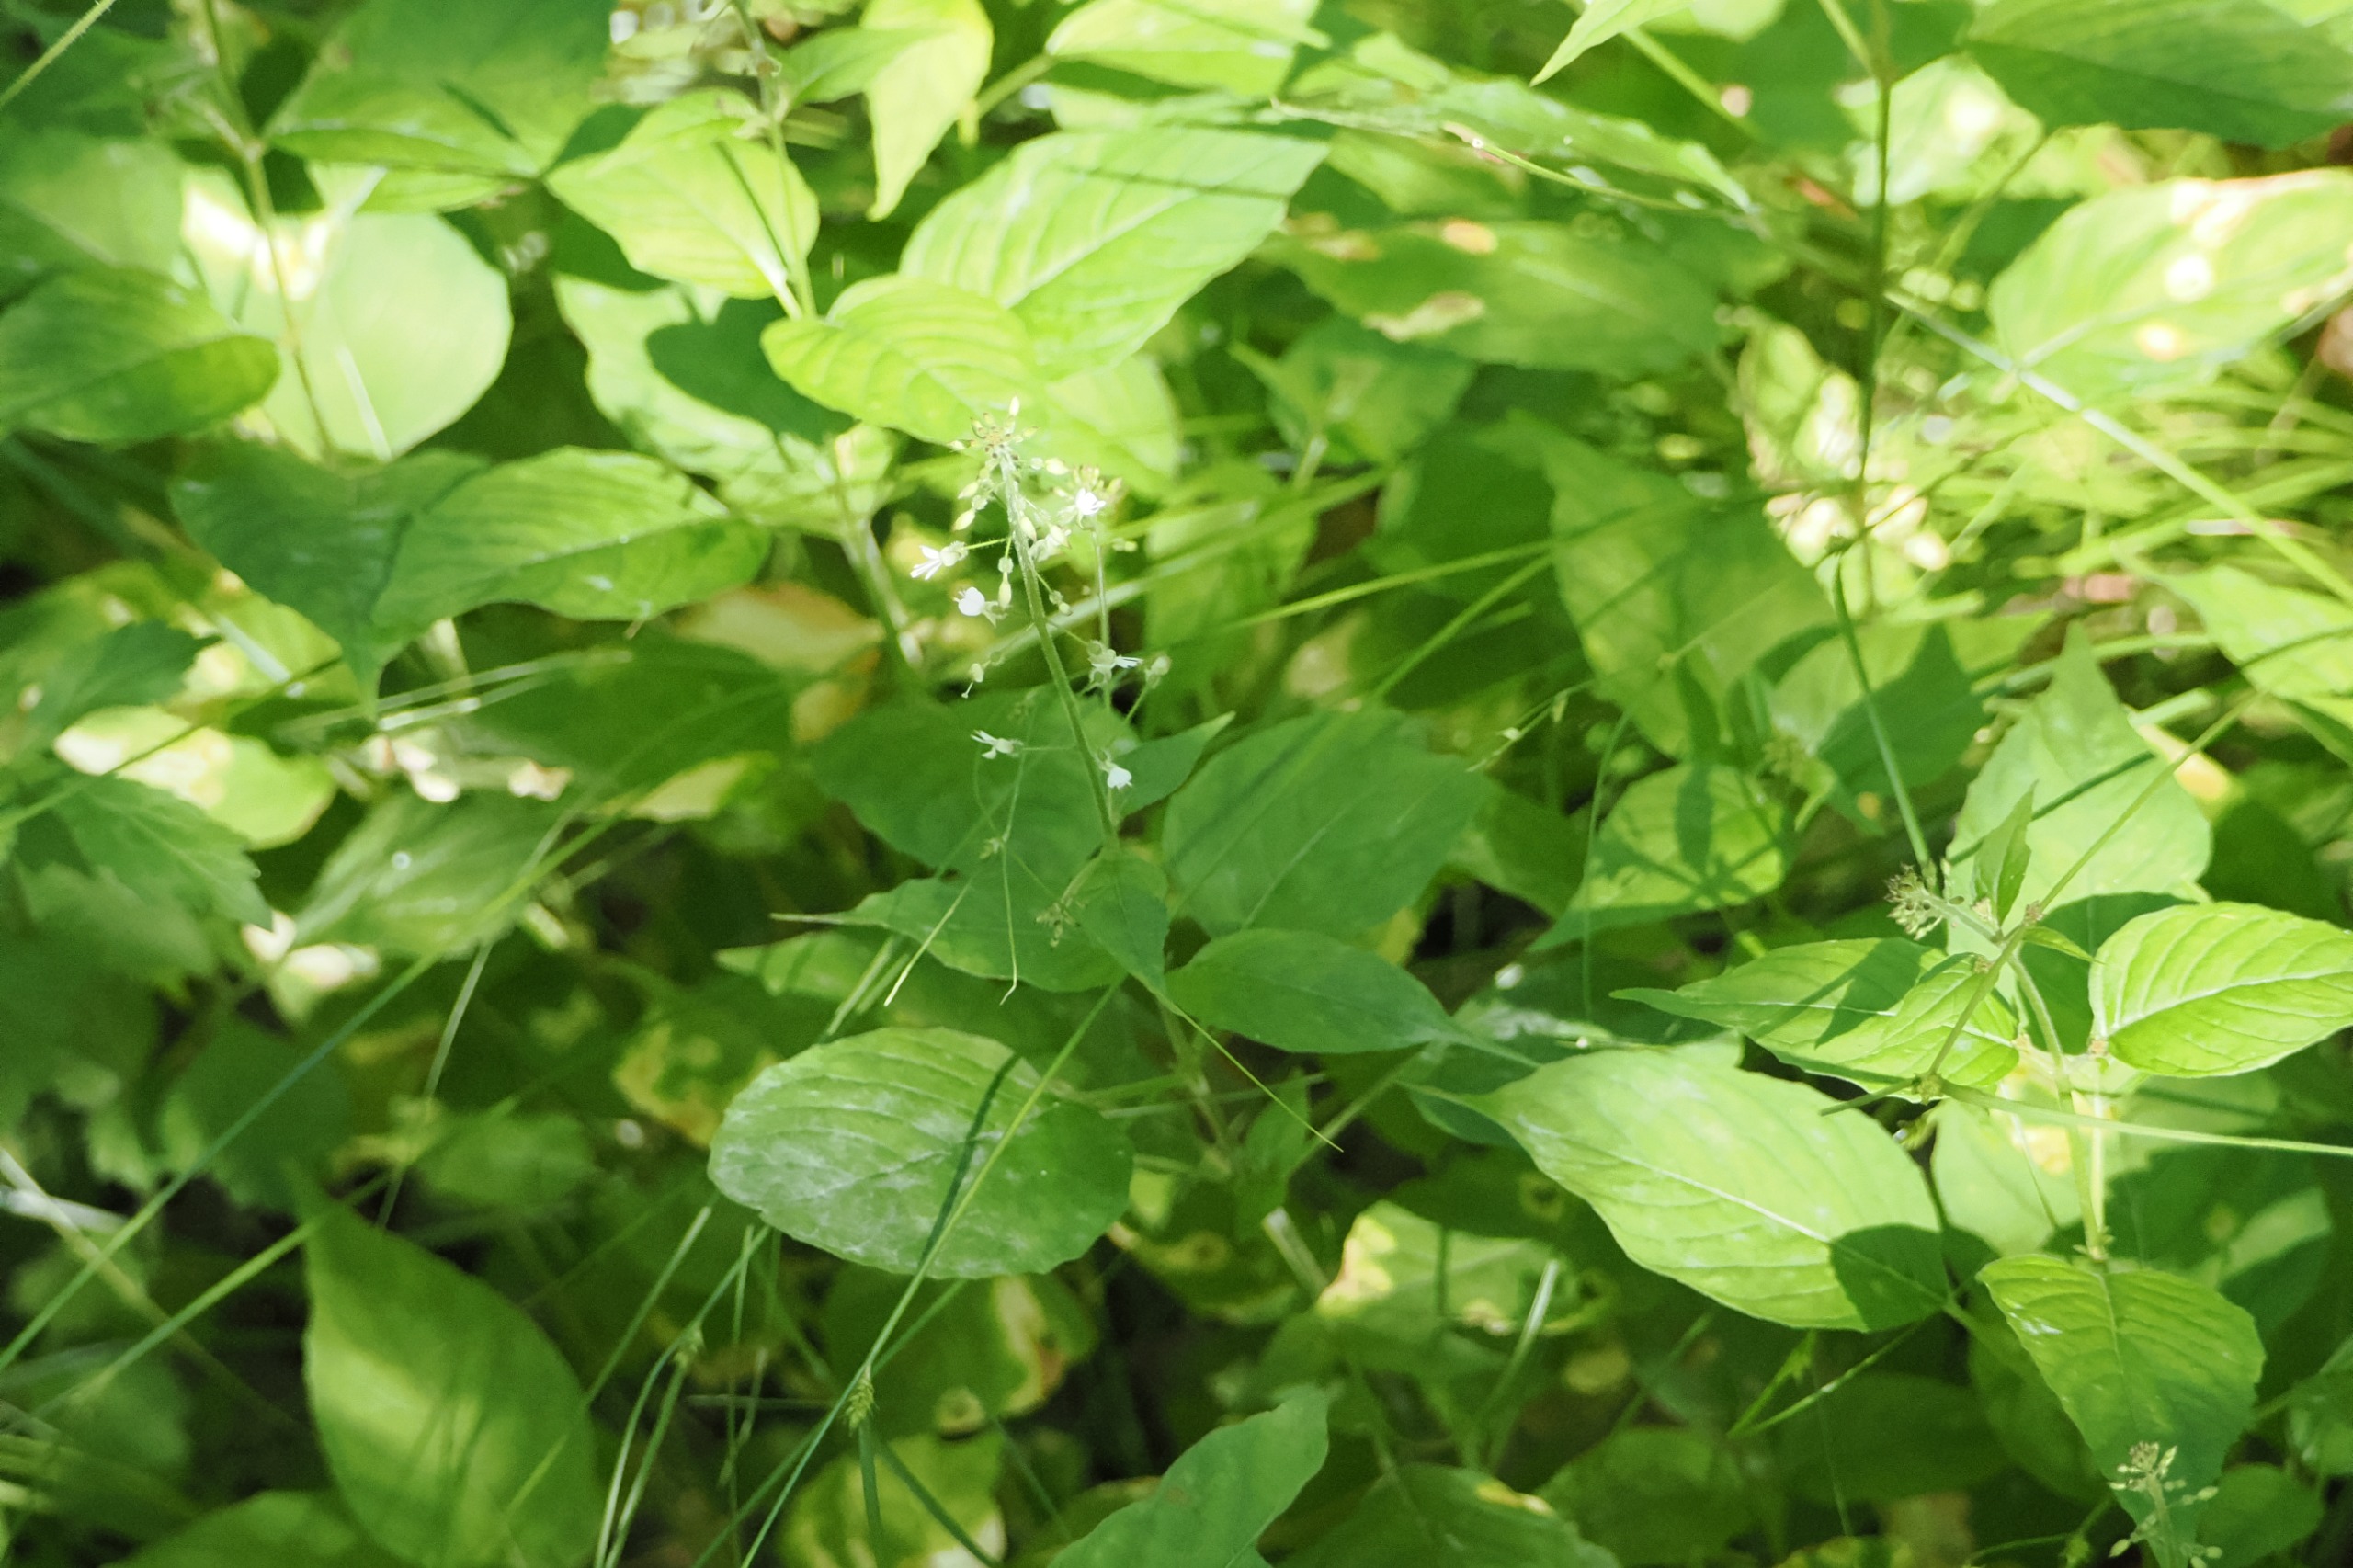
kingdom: Plantae
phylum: Tracheophyta
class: Magnoliopsida
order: Myrtales
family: Onagraceae
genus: Circaea
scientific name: Circaea lutetiana
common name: Dunet steffensurt
